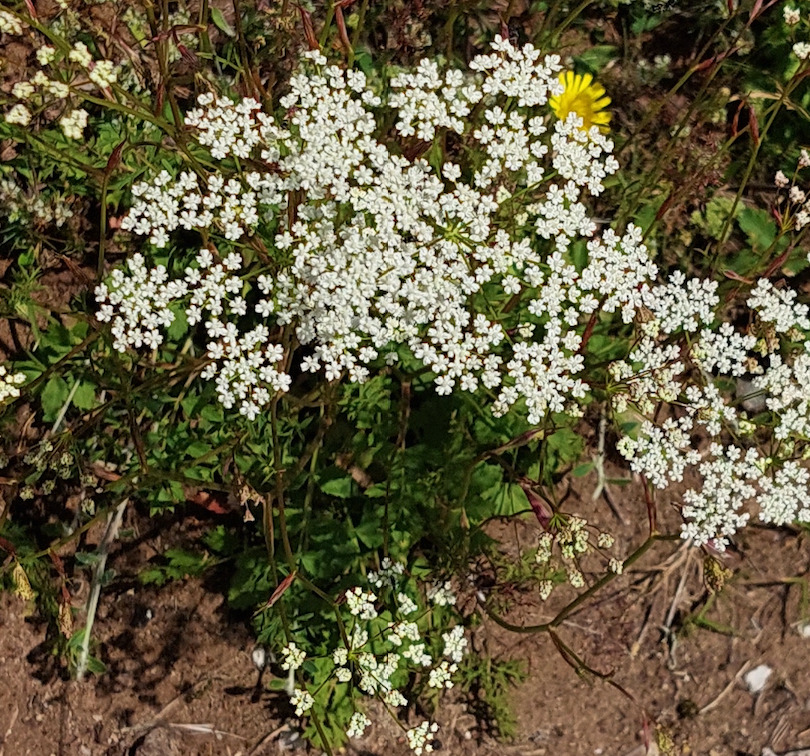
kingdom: Plantae
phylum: Tracheophyta
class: Magnoliopsida
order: Apiales
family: Apiaceae
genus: Pimpinella
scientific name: Pimpinella saxifraga
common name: Almindelig pimpinelle
